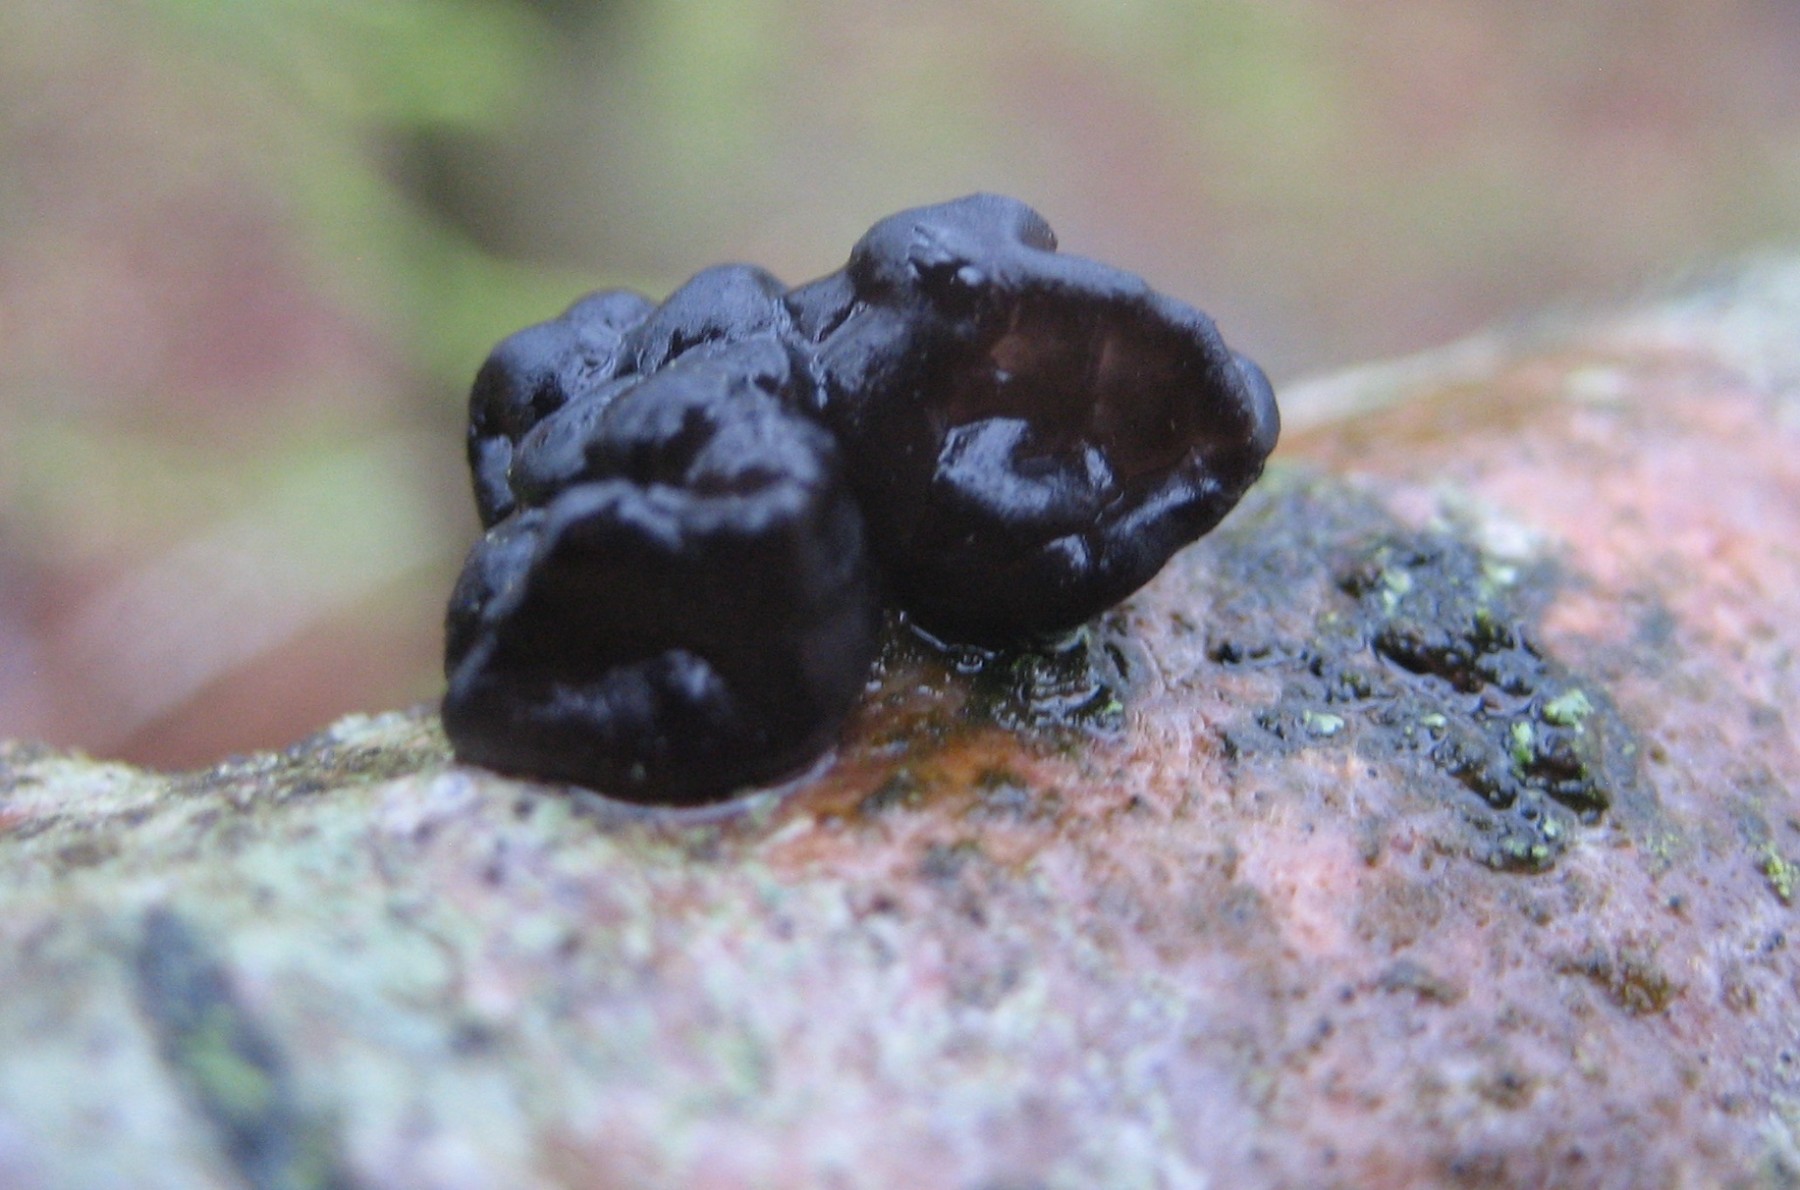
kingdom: Fungi
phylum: Basidiomycota
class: Agaricomycetes
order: Auriculariales
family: Auriculariaceae
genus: Exidia
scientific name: Exidia nigricans
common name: almindelig bævretop
